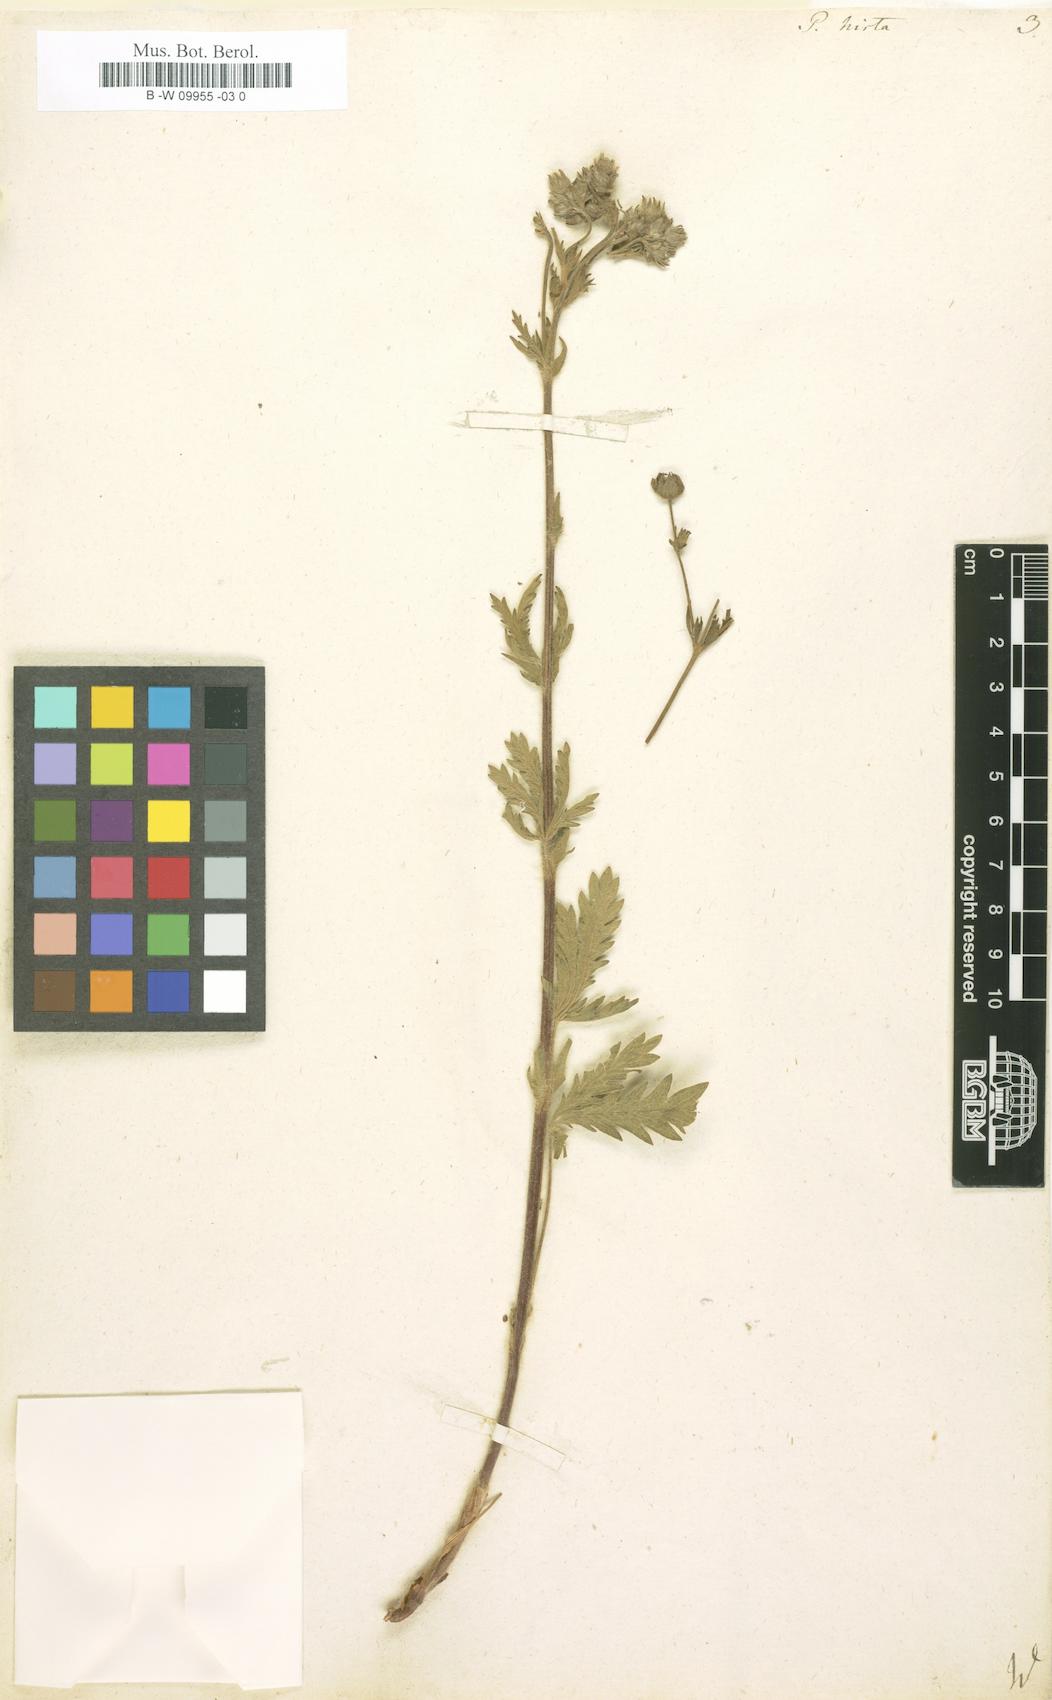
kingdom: Plantae
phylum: Tracheophyta
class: Magnoliopsida
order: Rosales
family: Rosaceae
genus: Potentilla
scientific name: Potentilla hirta
